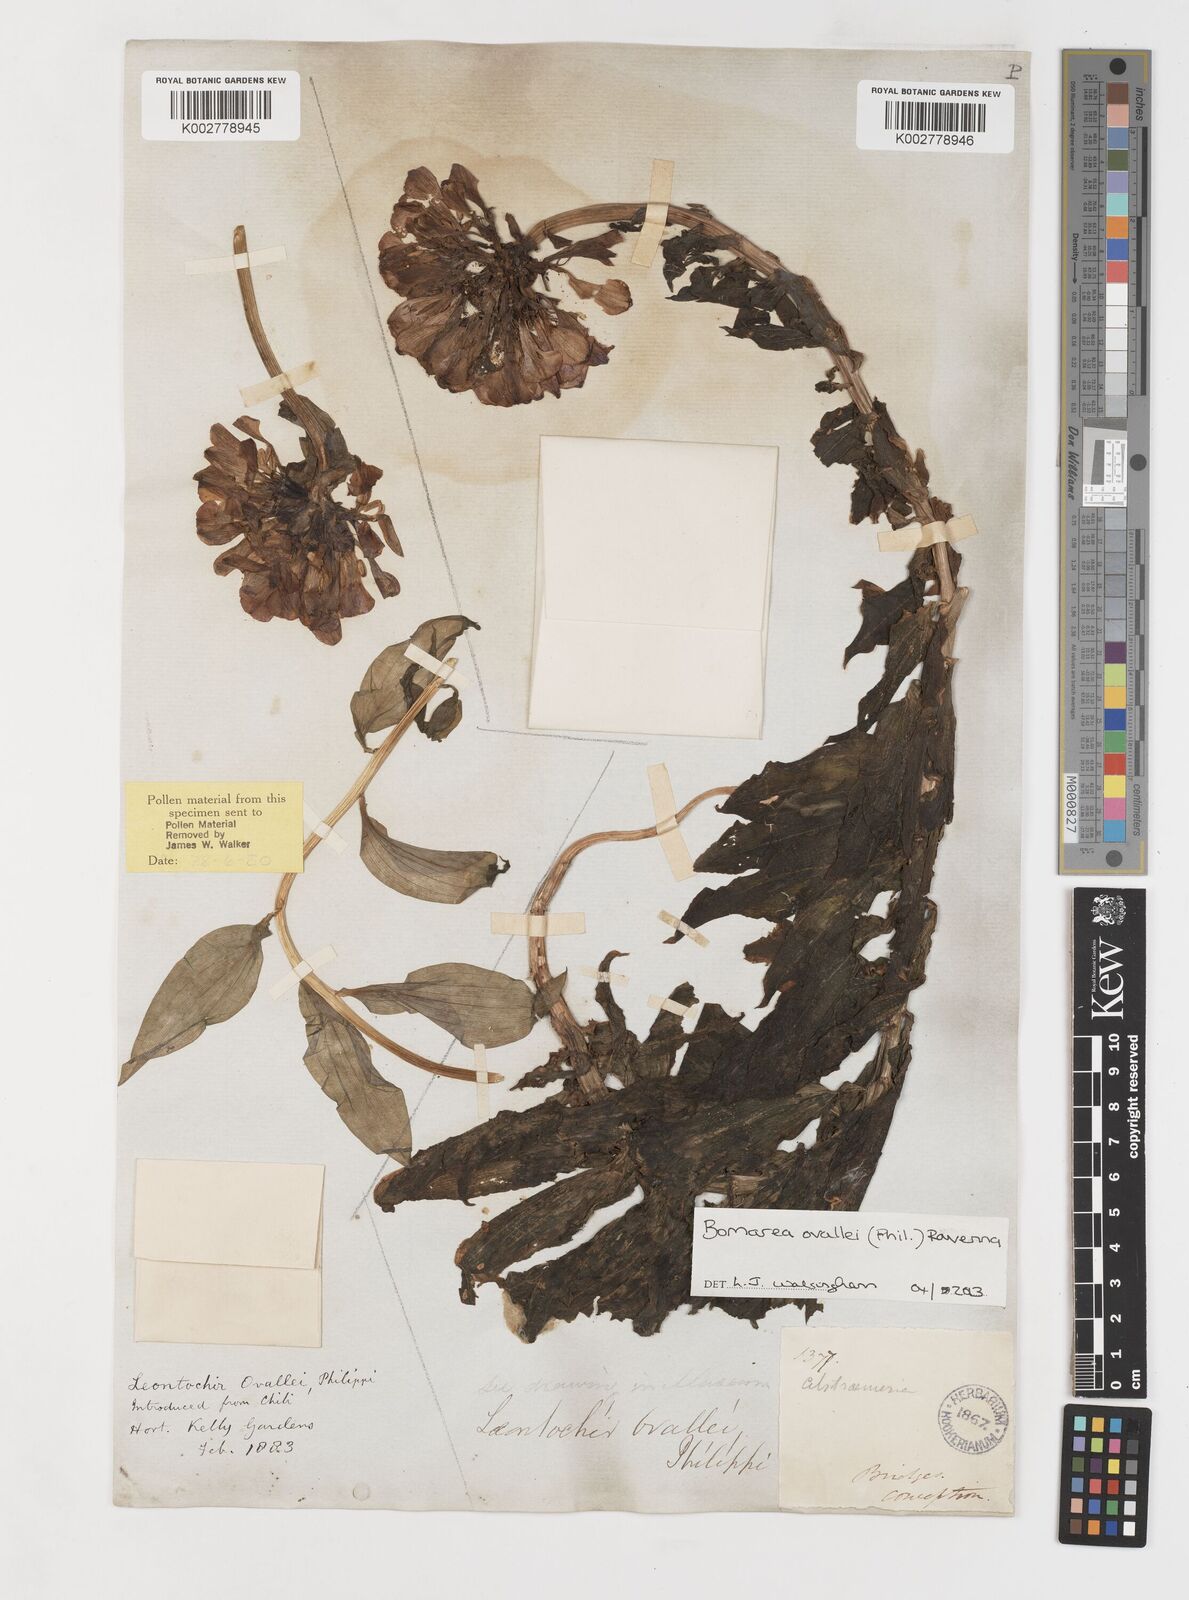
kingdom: Plantae
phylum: Tracheophyta
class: Liliopsida
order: Liliales
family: Alstroemeriaceae
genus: Bomarea
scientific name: Bomarea ovallei
